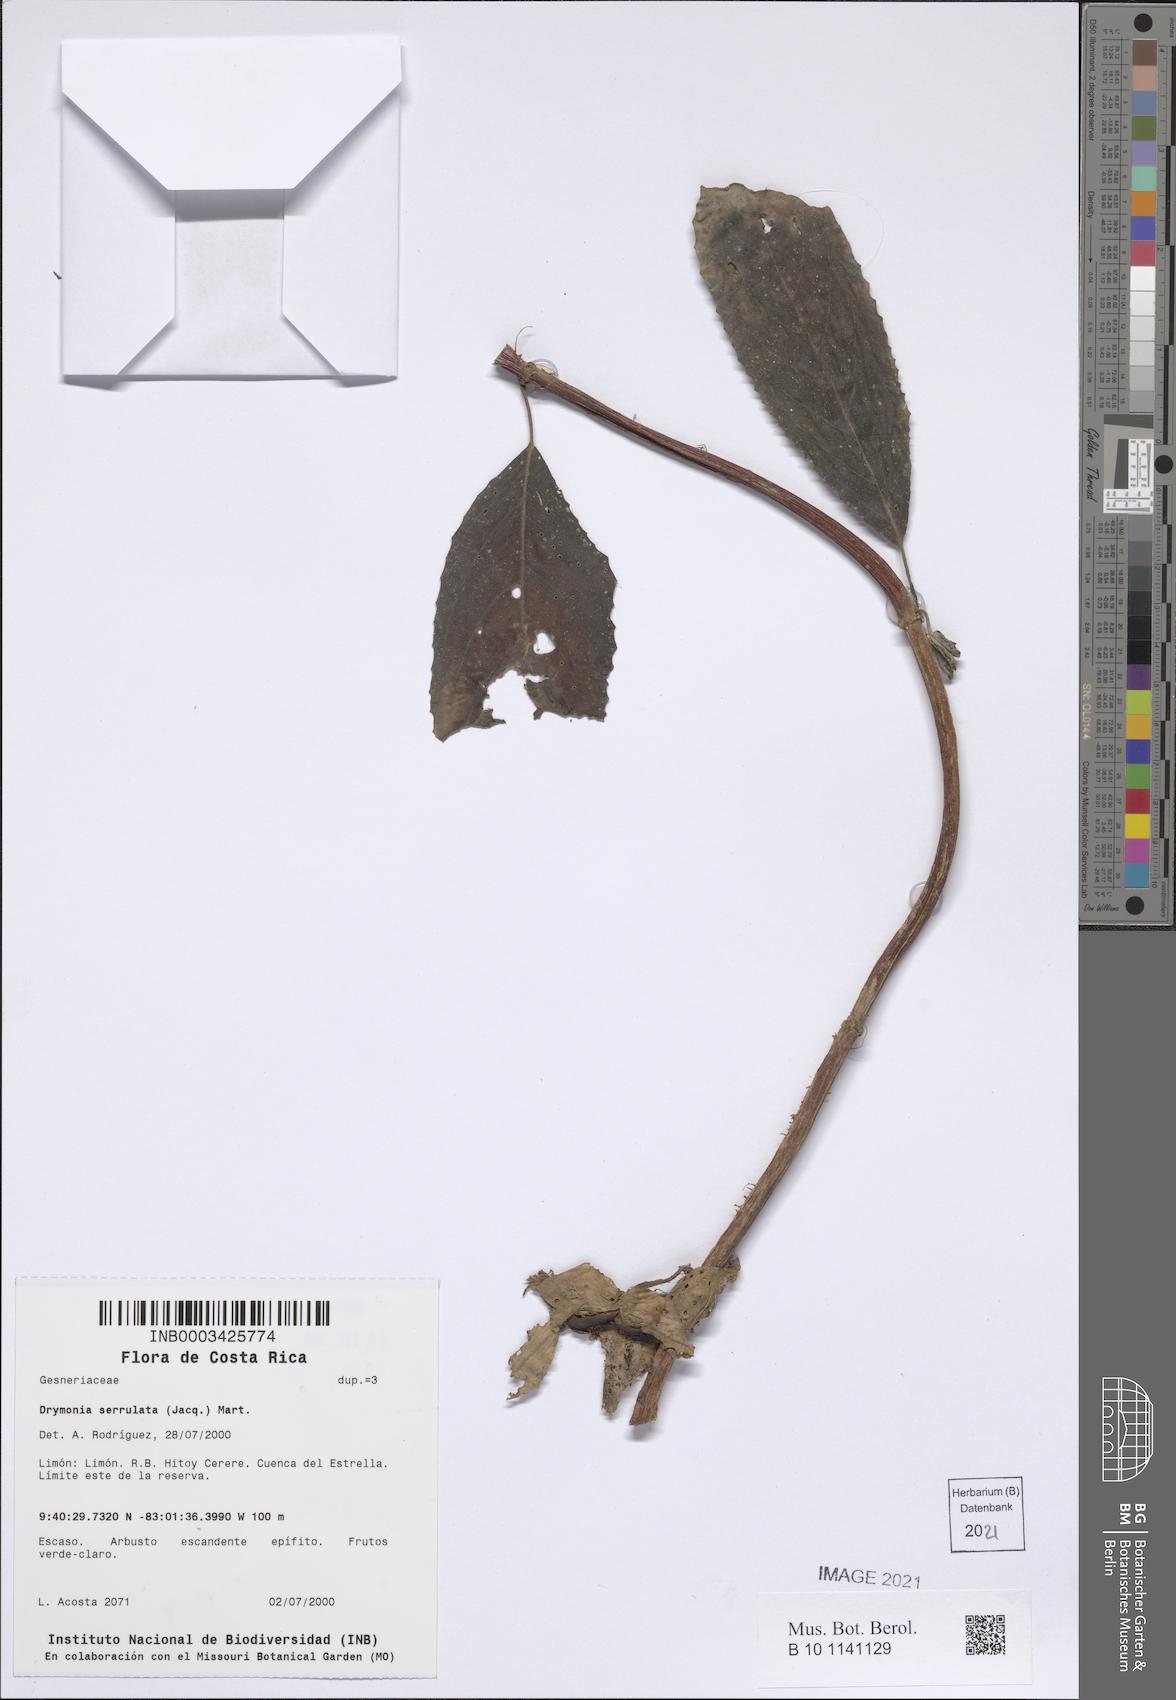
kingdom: Plantae
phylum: Tracheophyta
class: Magnoliopsida
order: Lamiales
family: Gesneriaceae
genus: Drymonia
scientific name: Drymonia serrulata
